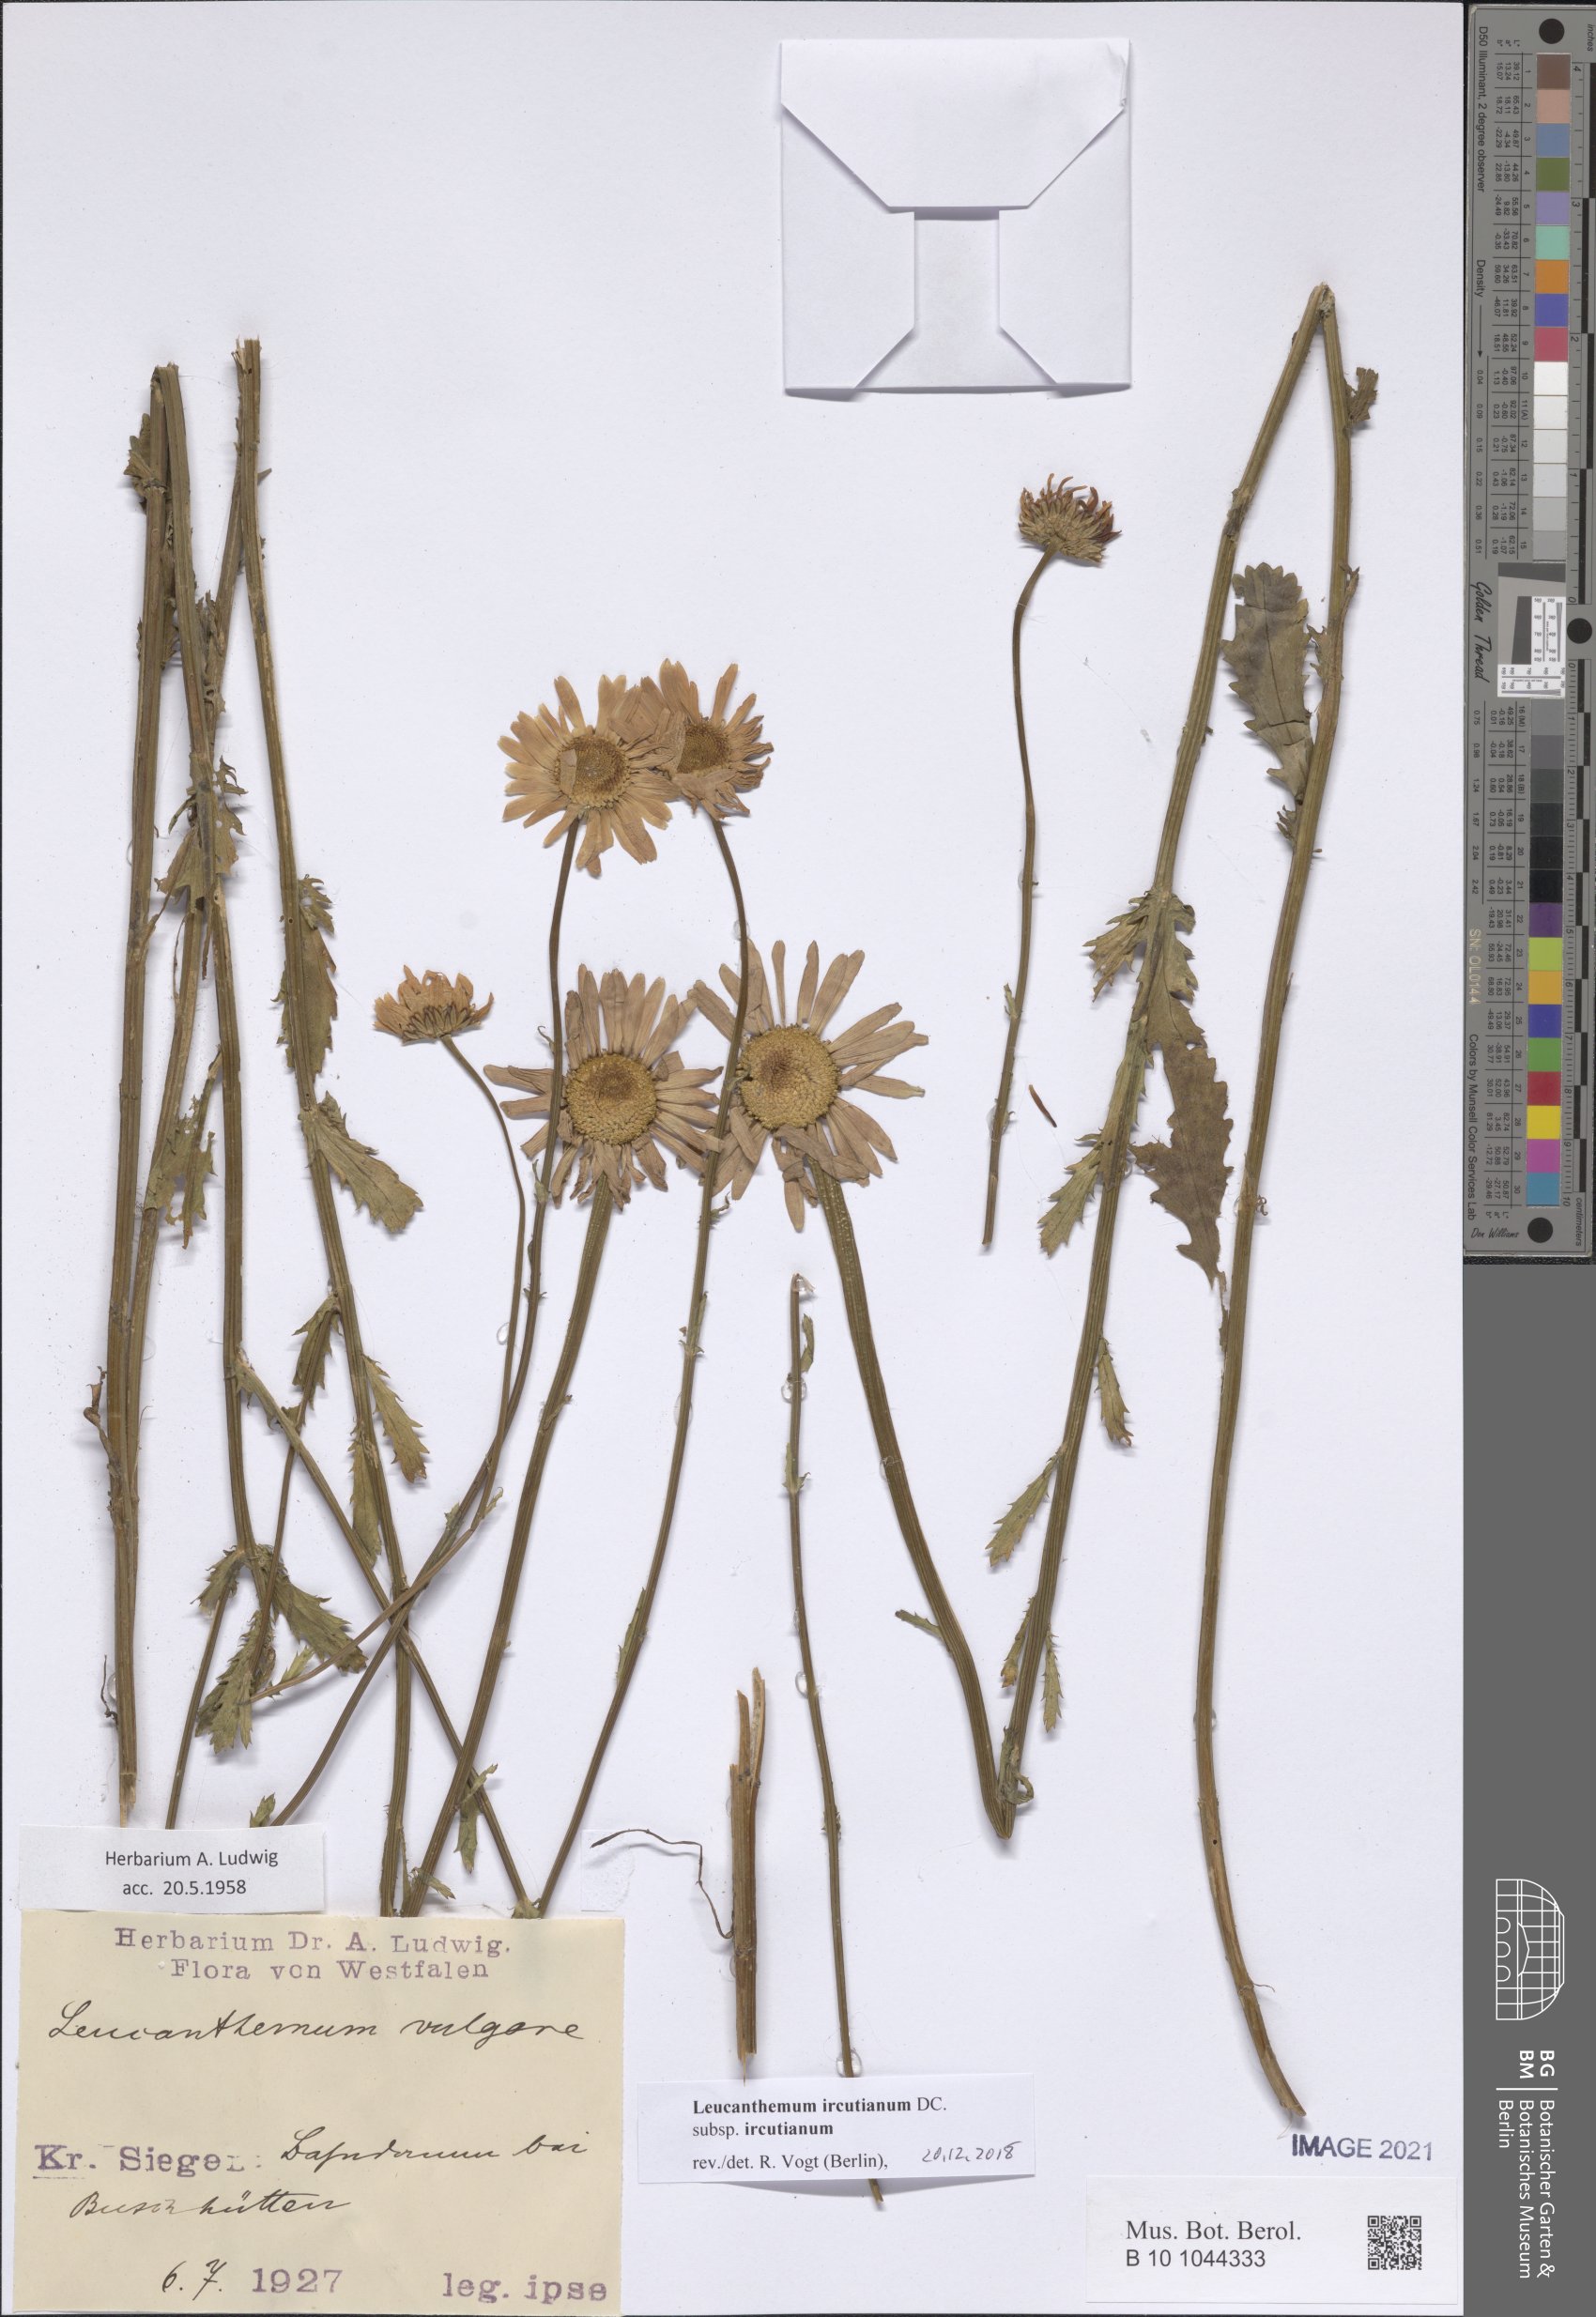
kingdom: Plantae
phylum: Tracheophyta
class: Magnoliopsida
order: Asterales
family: Asteraceae
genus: Leucanthemum
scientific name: Leucanthemum ircutianum
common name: Daisy
